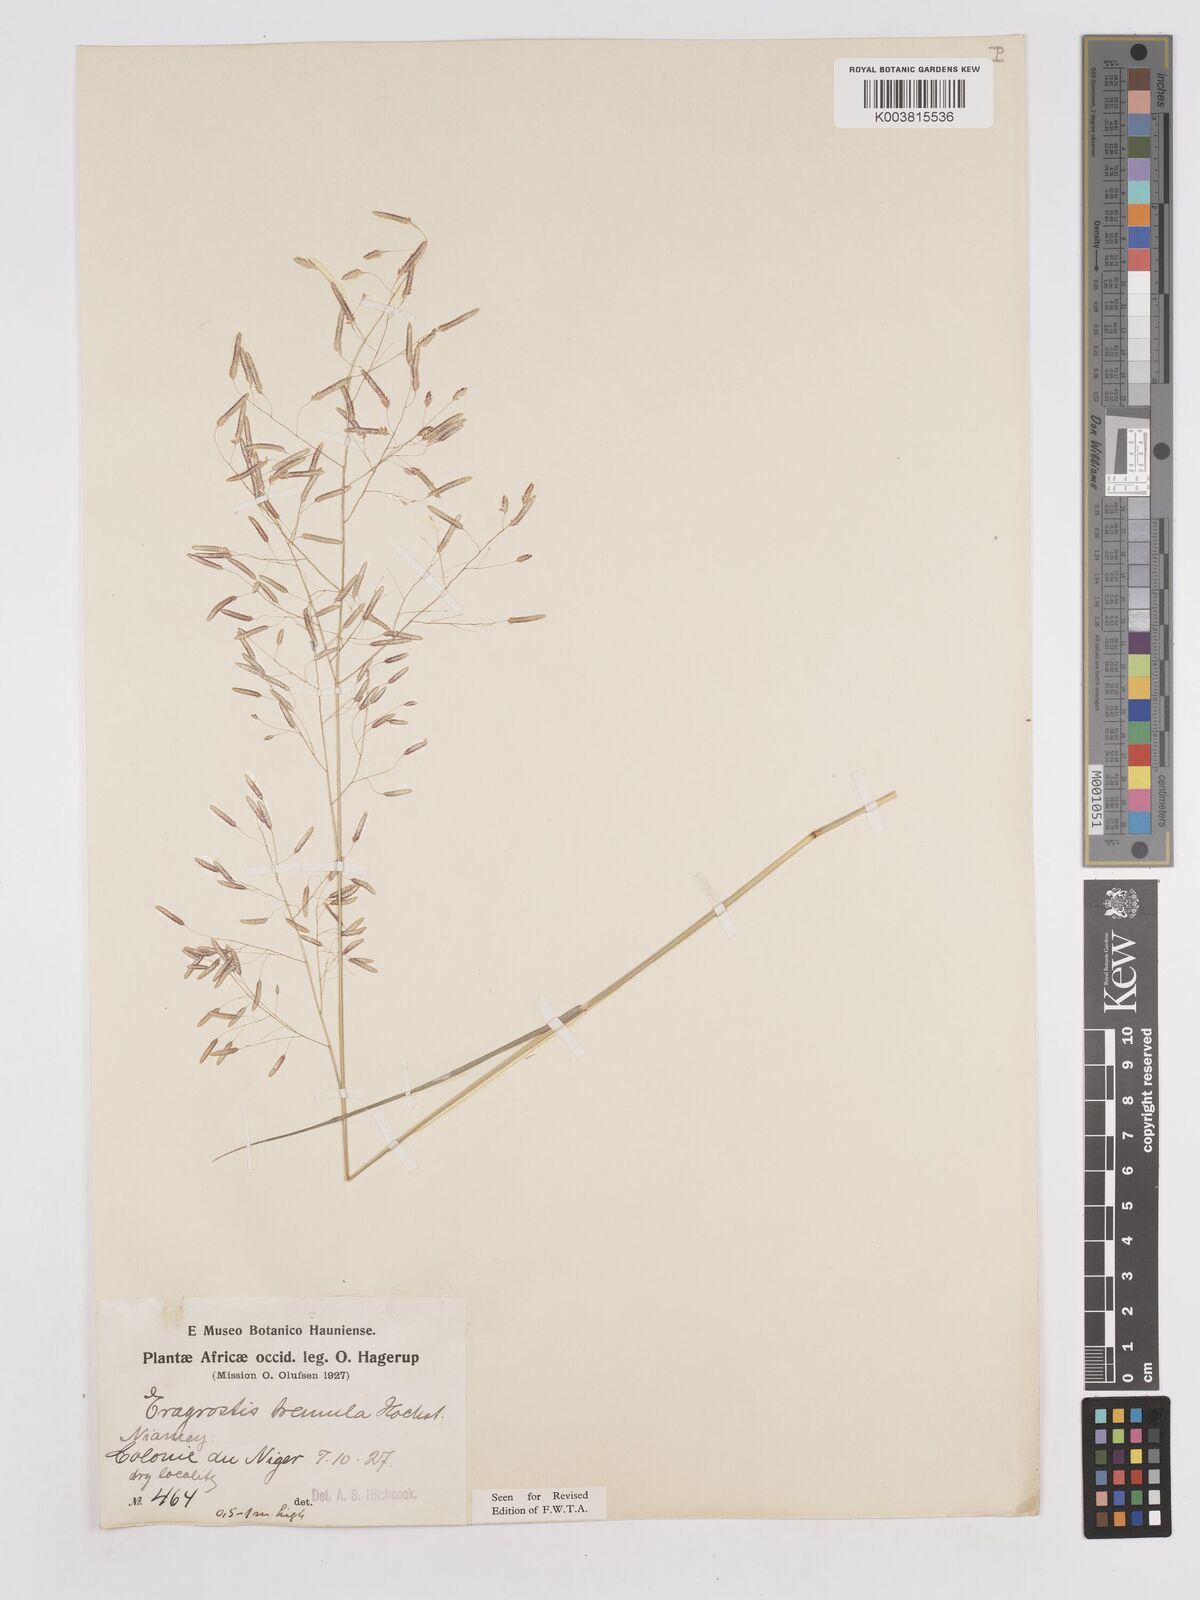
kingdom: Plantae
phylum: Tracheophyta
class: Liliopsida
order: Poales
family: Poaceae
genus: Eragrostis
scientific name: Eragrostis tremula
